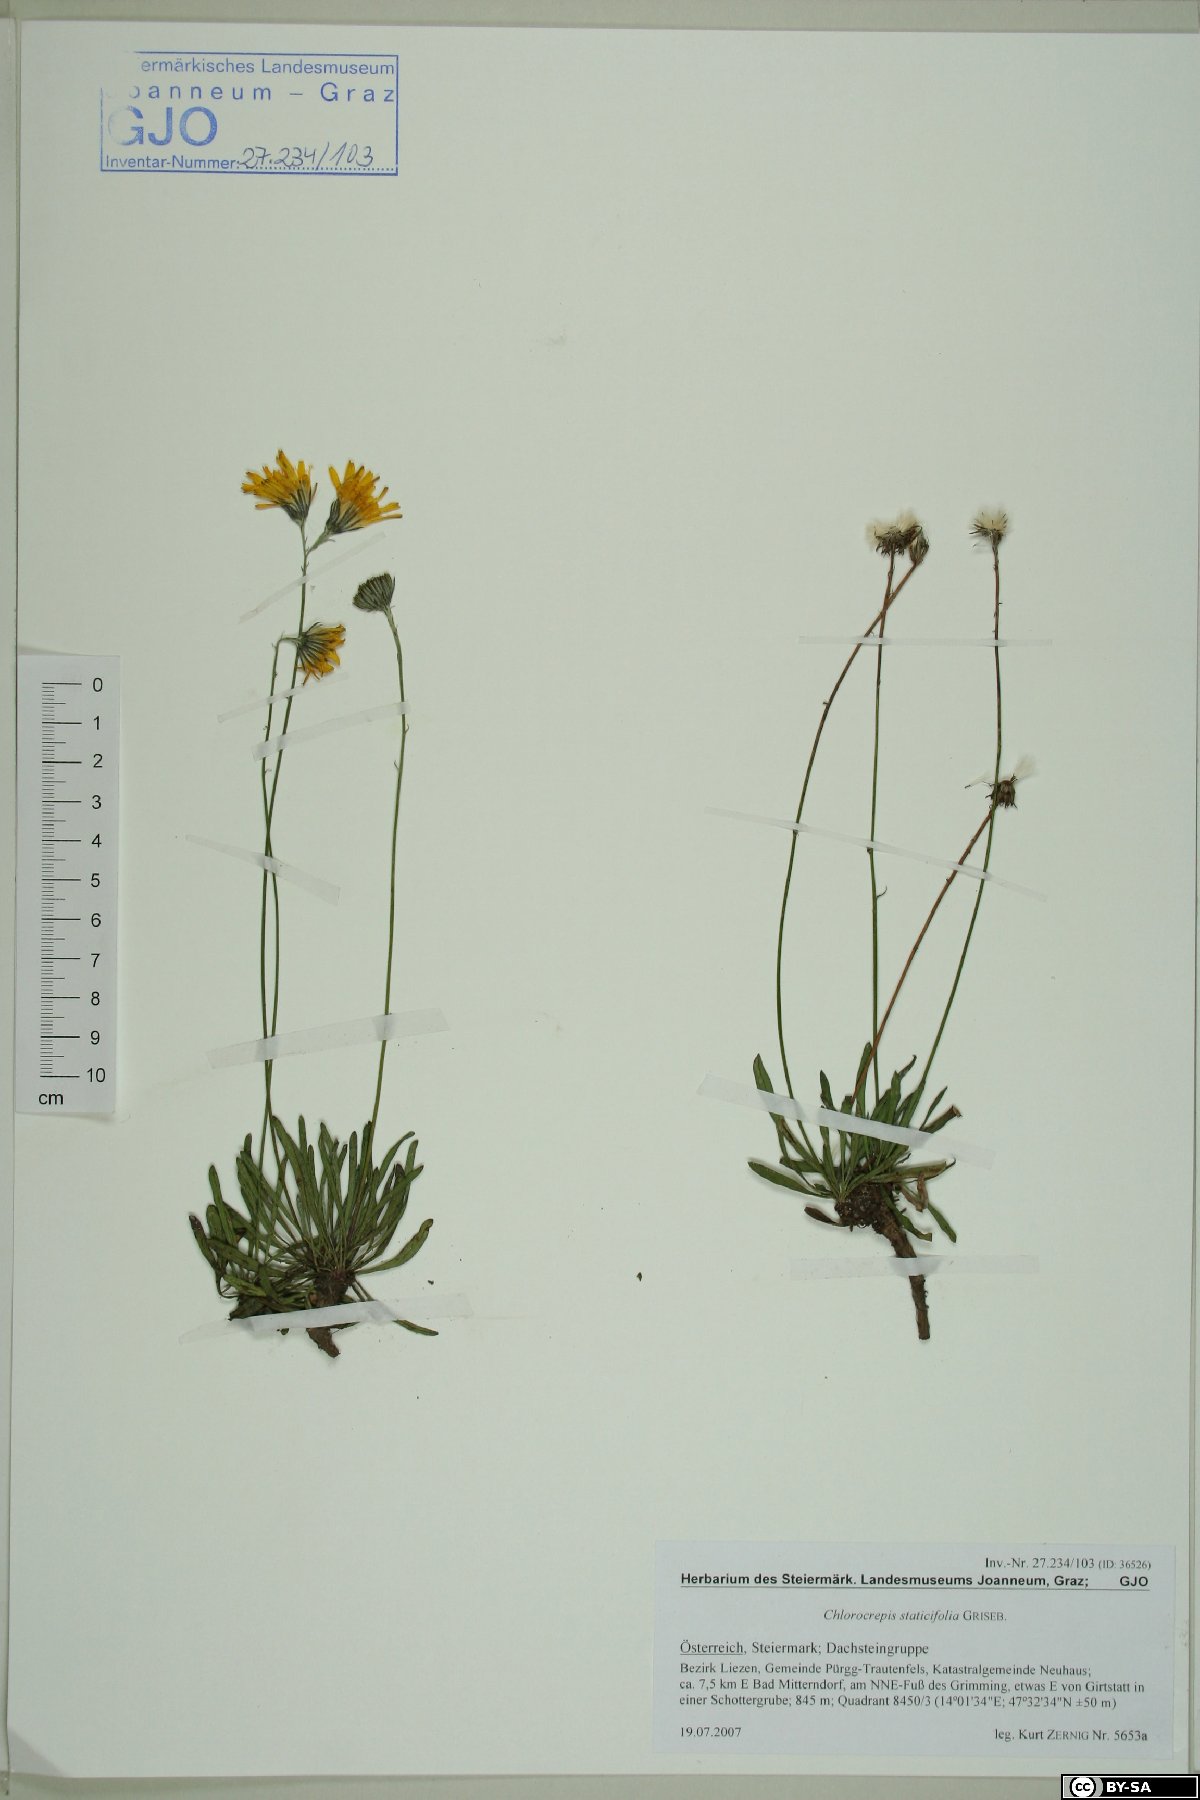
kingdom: Plantae
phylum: Tracheophyta
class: Magnoliopsida
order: Asterales
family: Asteraceae
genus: Tolpis
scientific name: Tolpis staticifolia
